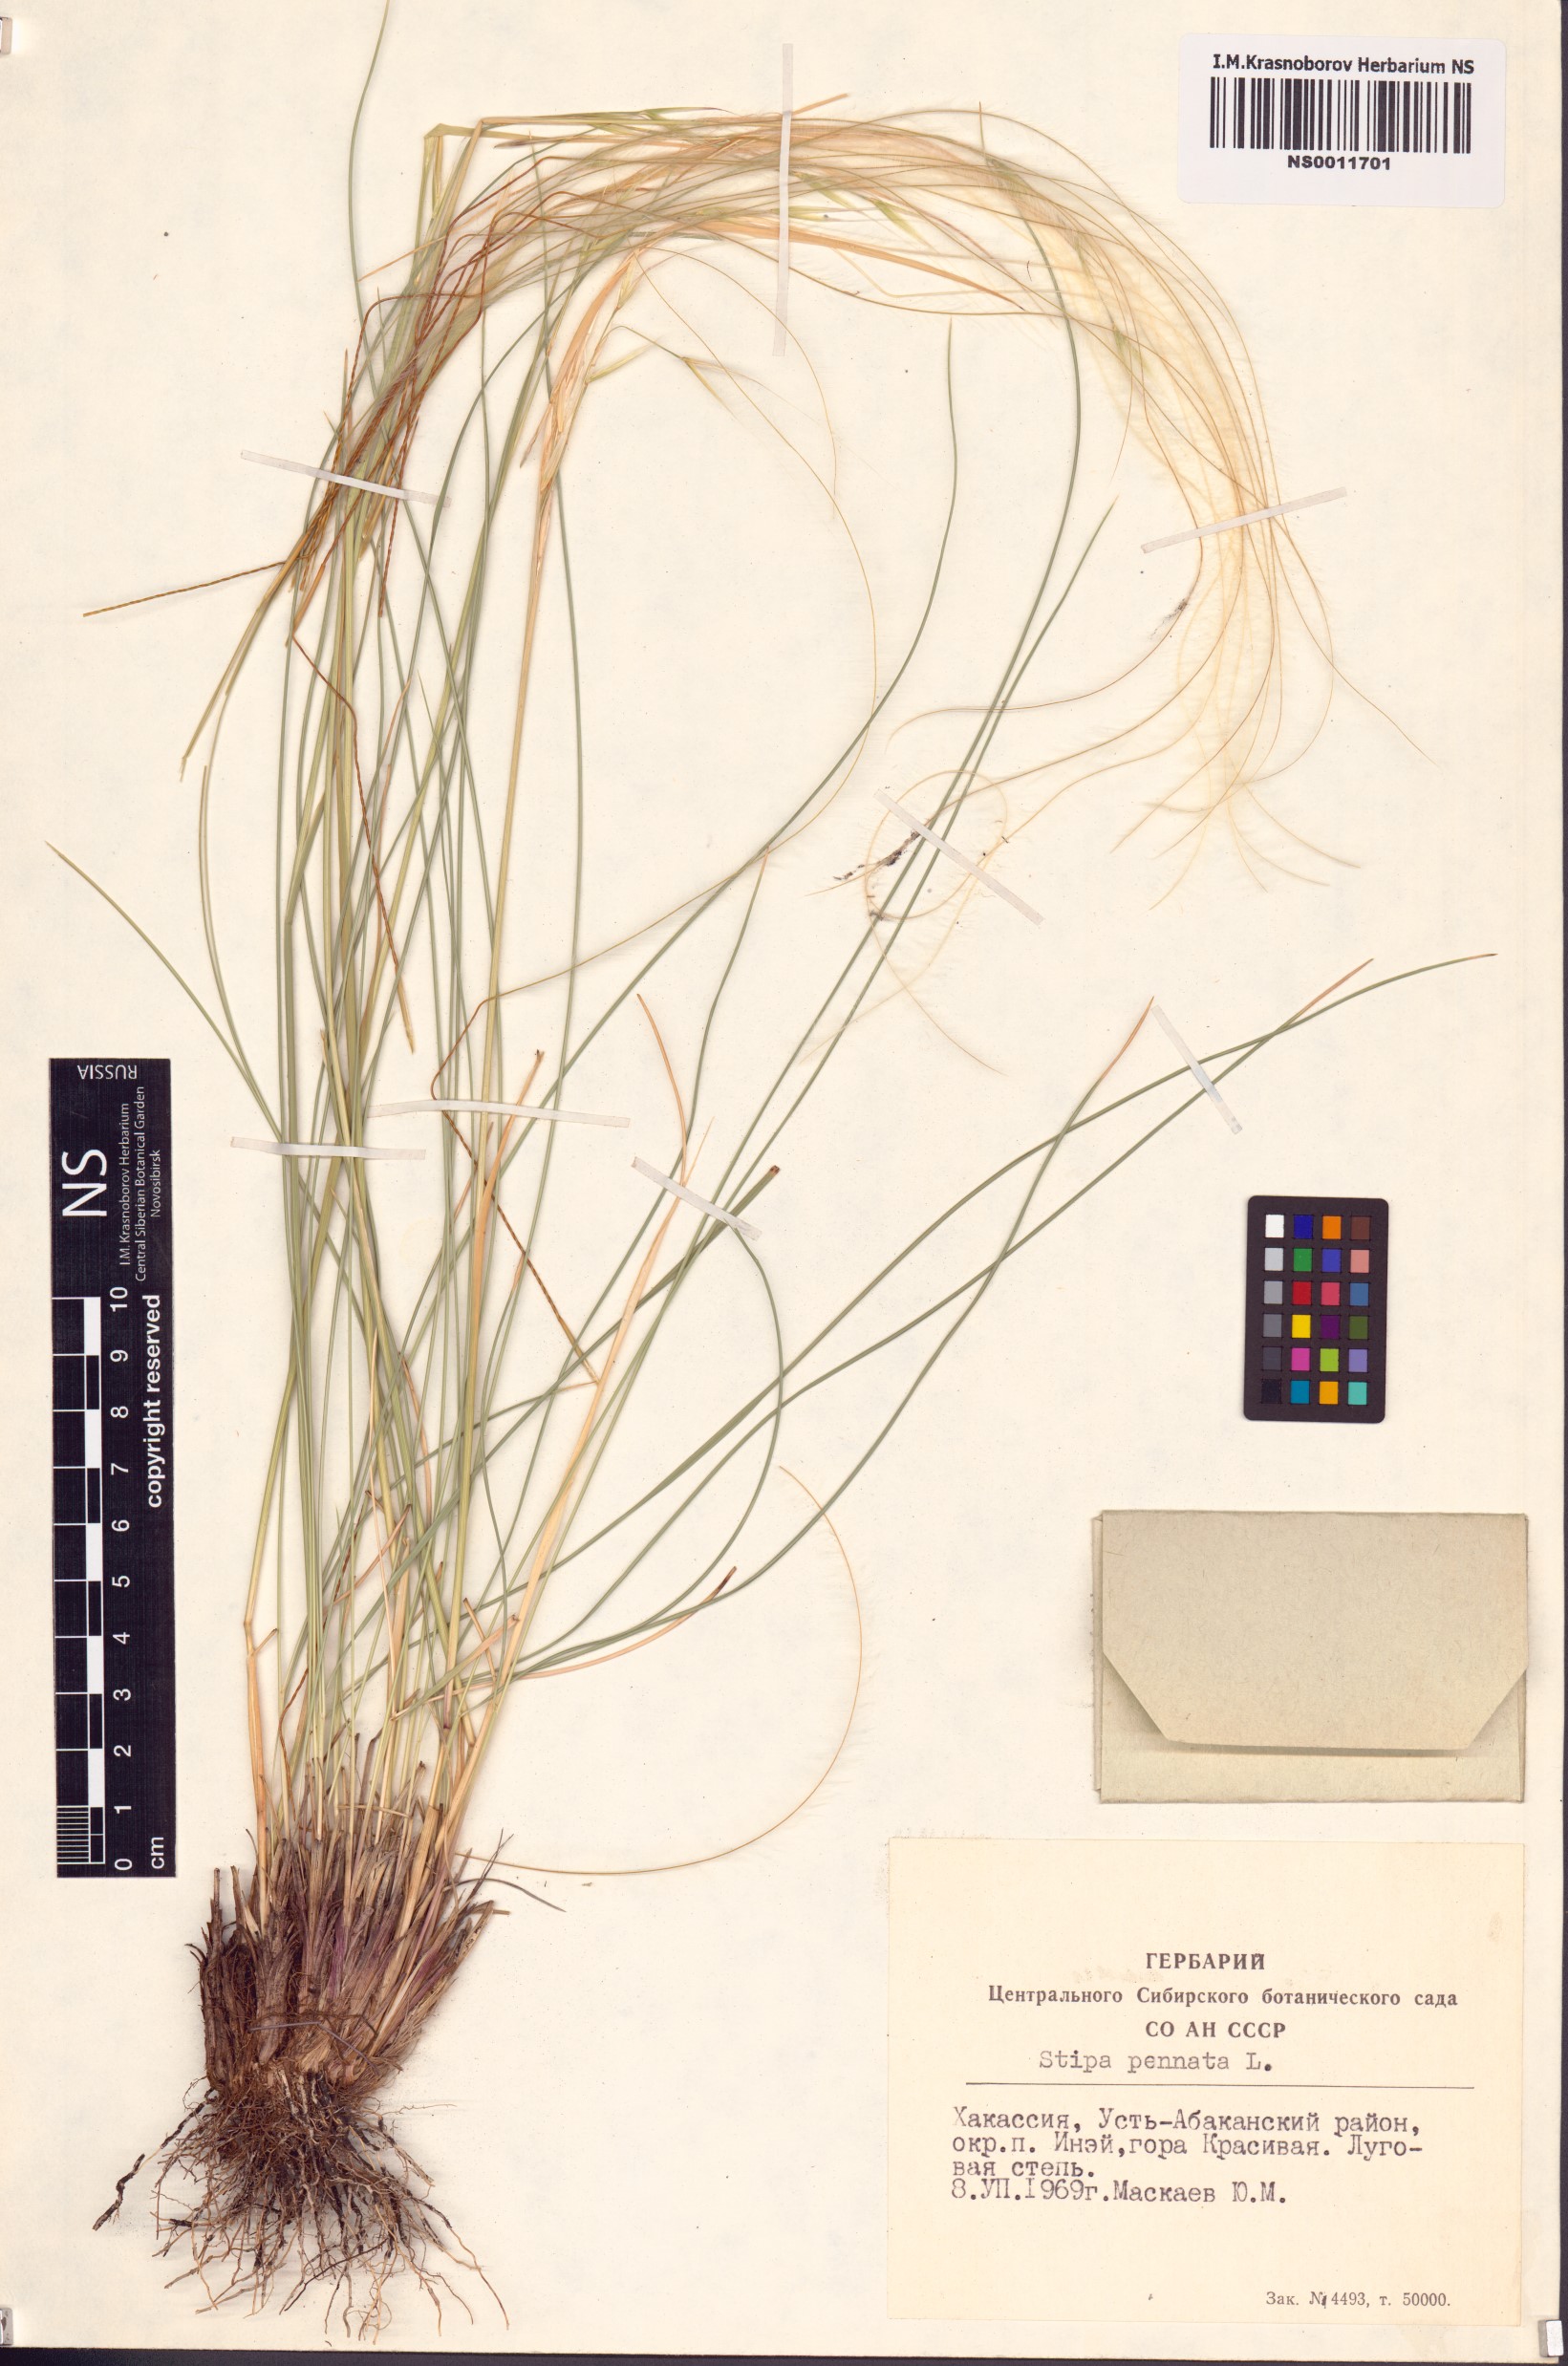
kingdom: Plantae
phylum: Tracheophyta
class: Liliopsida
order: Poales
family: Poaceae
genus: Stipa
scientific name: Stipa pennata
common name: European feather grass
